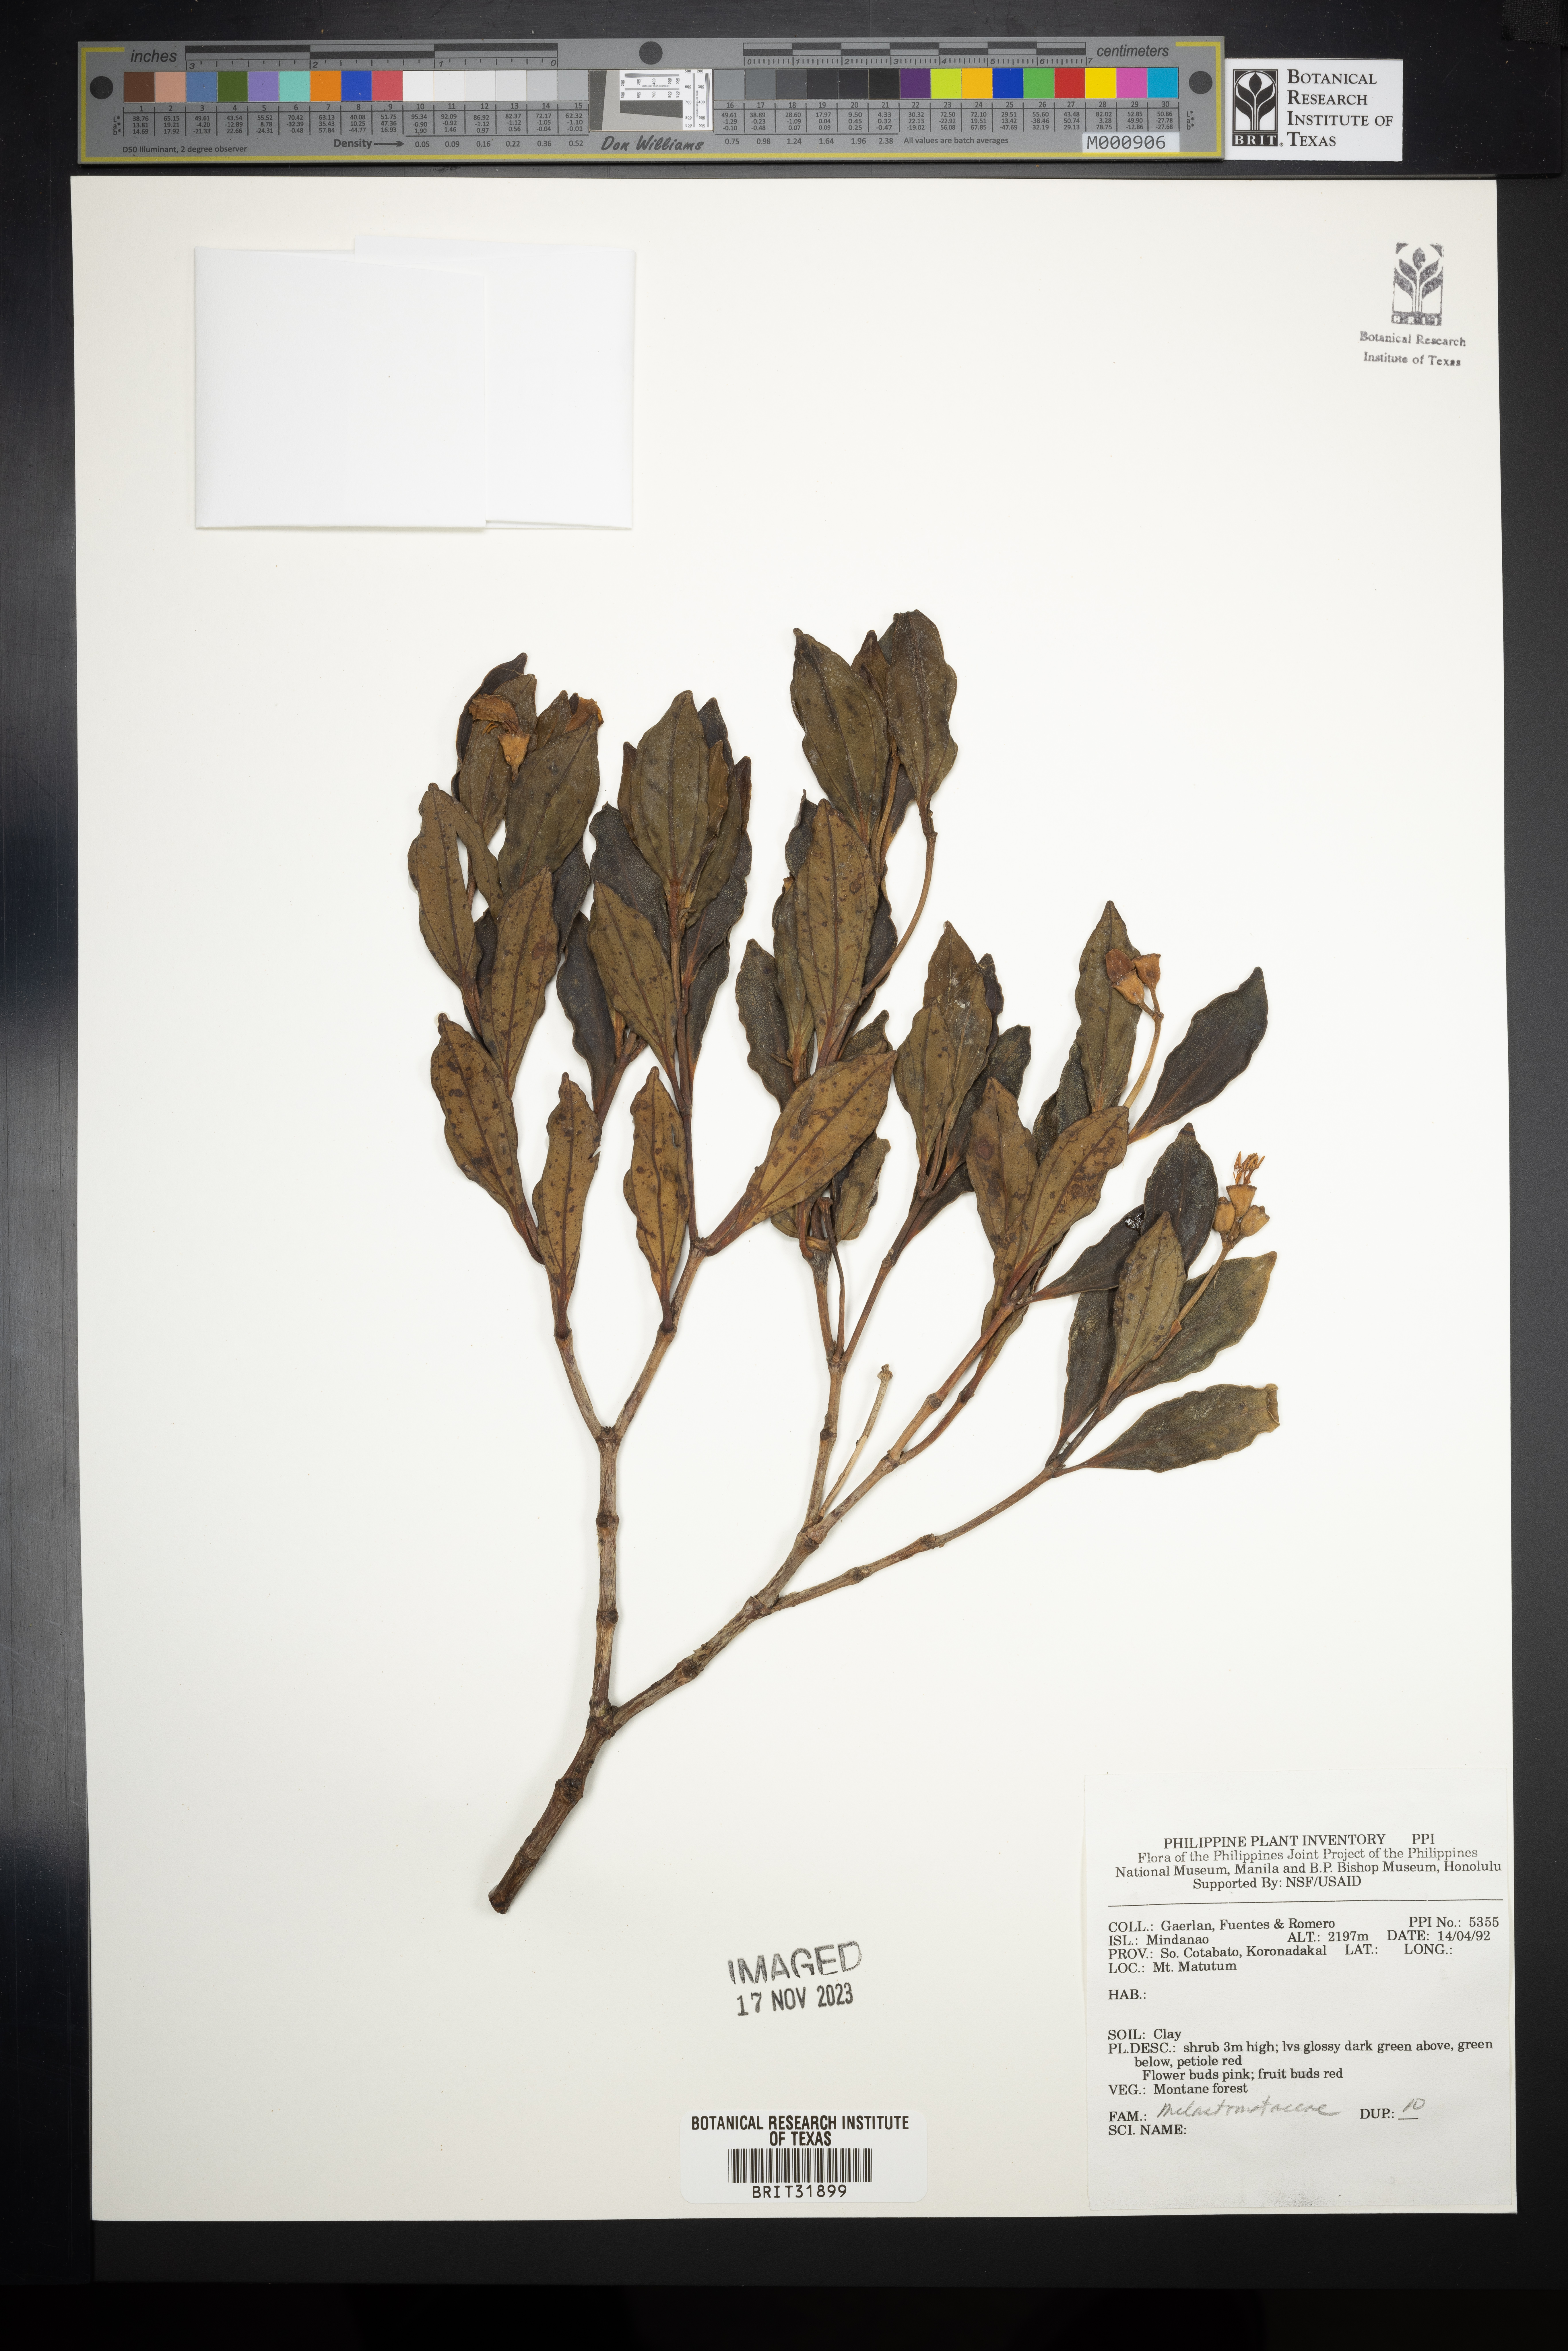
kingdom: Plantae
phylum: Tracheophyta
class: Magnoliopsida
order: Myrtales
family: Melastomataceae
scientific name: Melastomataceae
